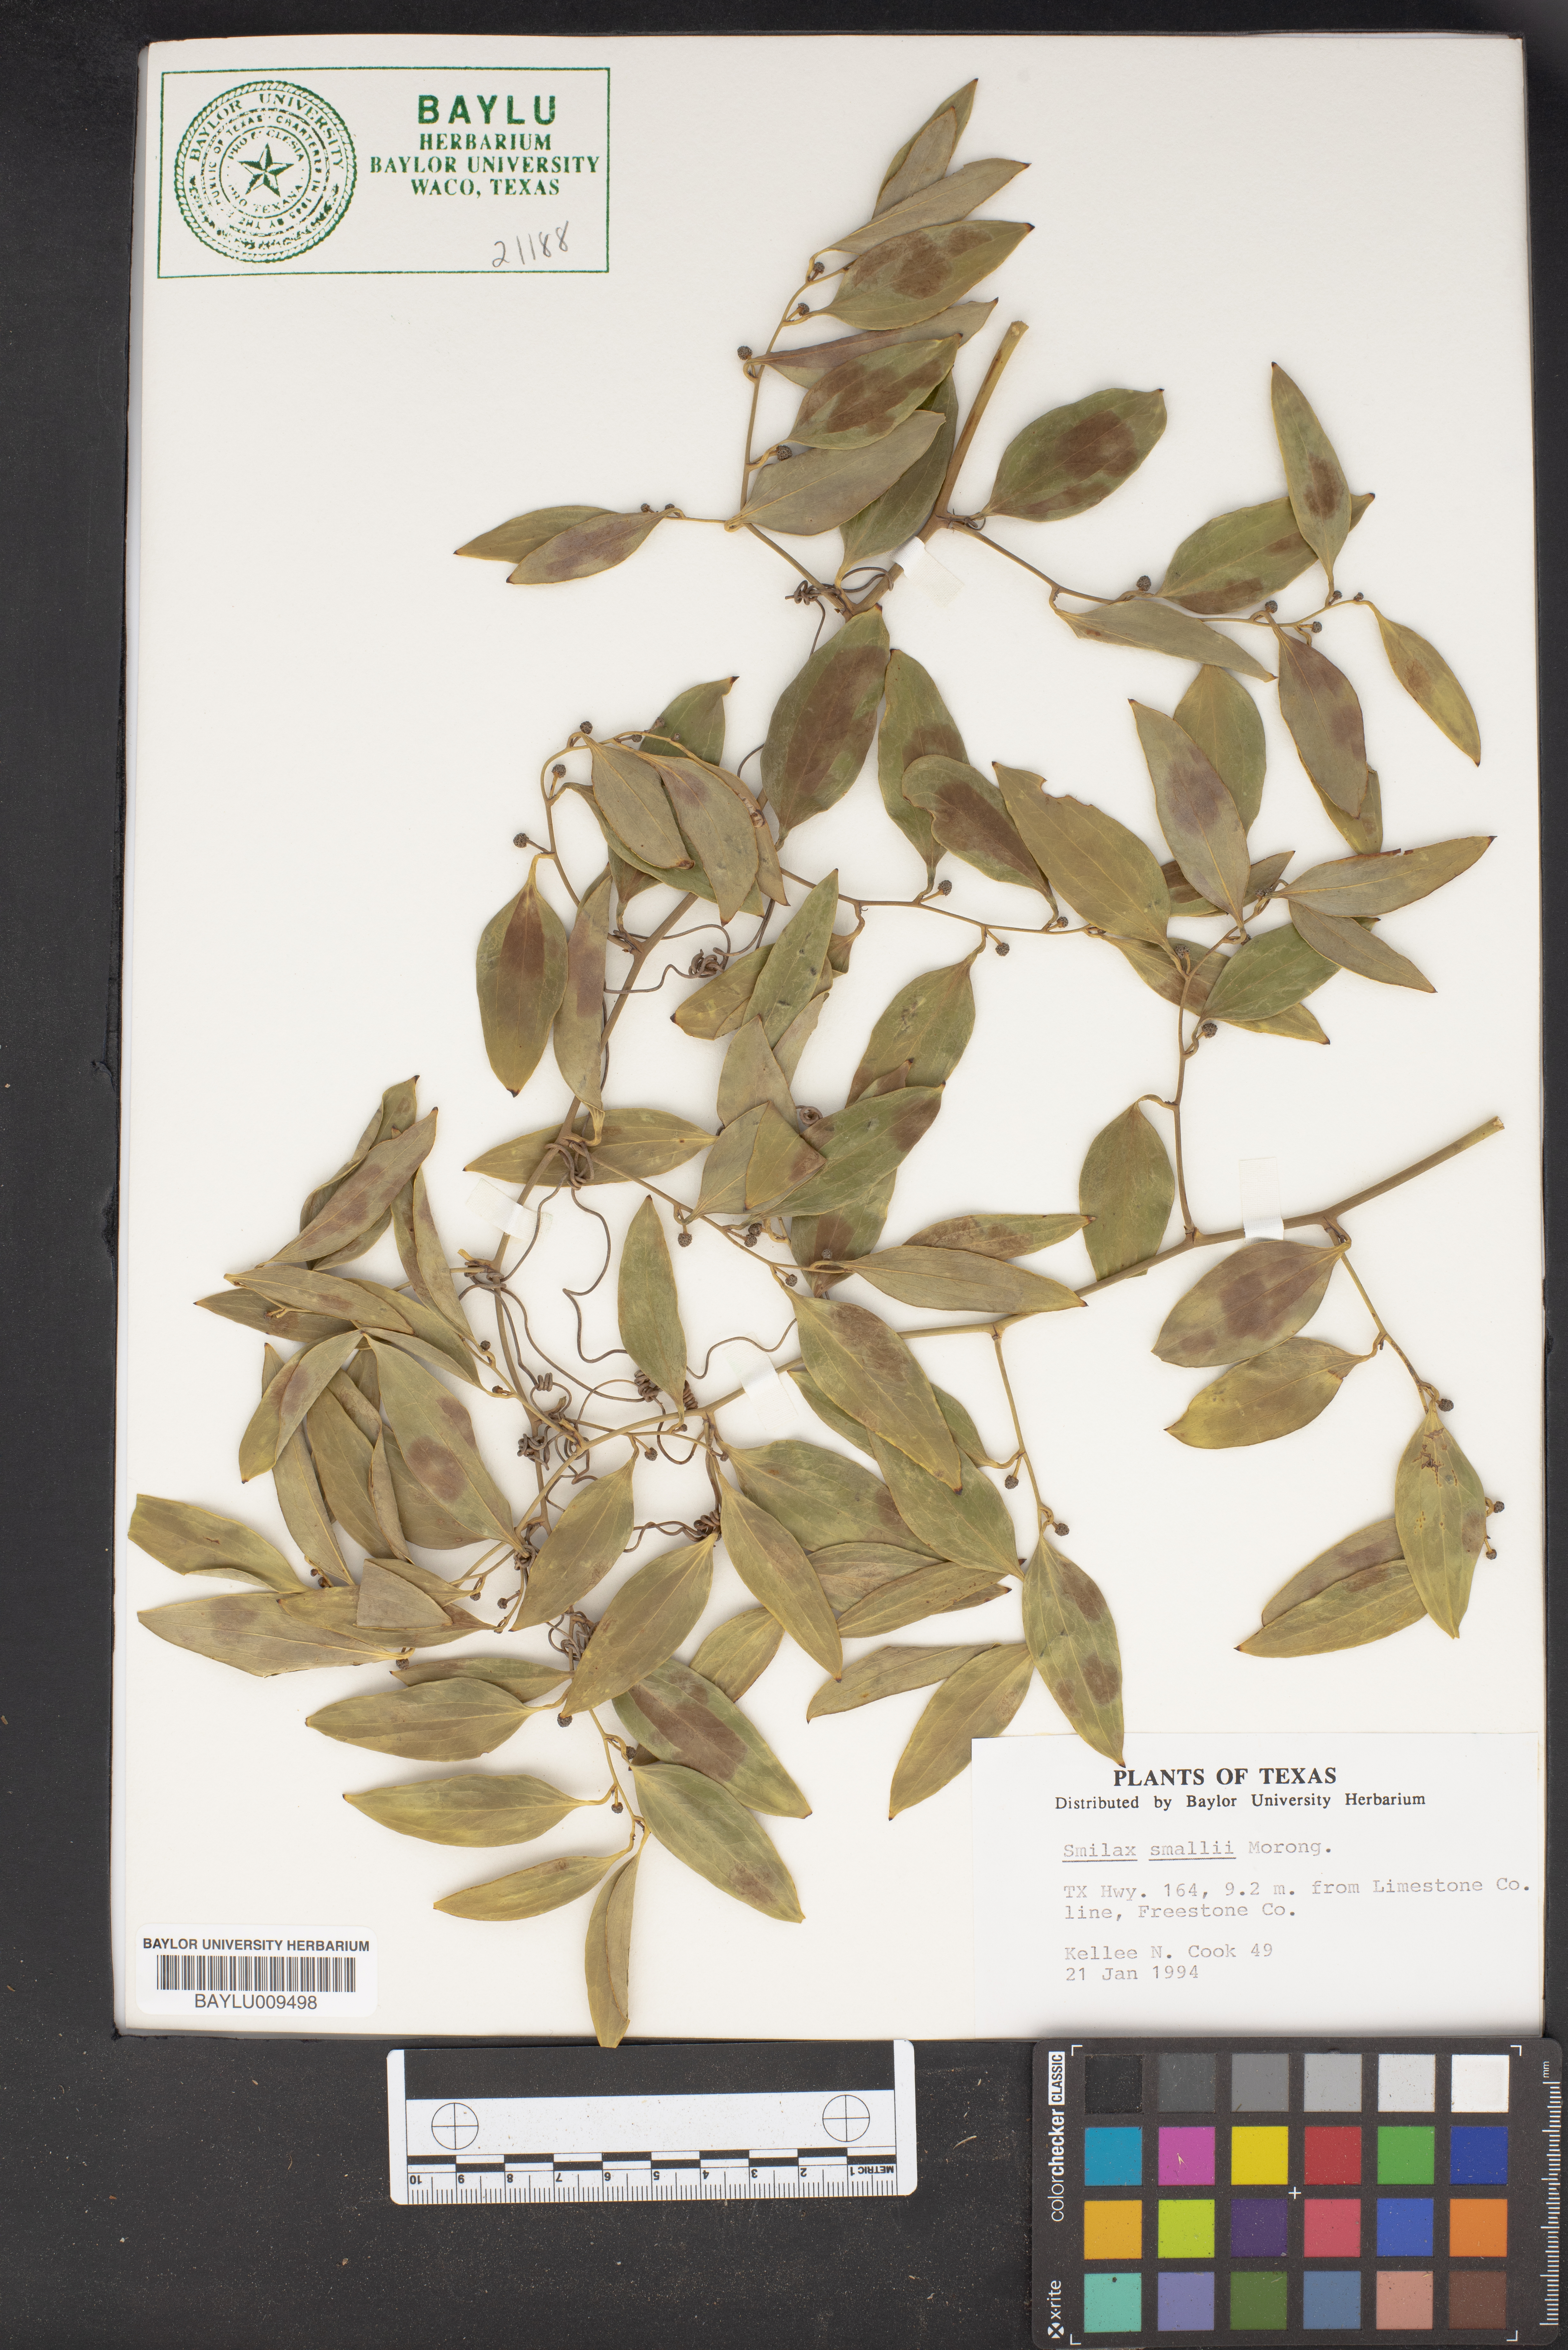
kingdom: Plantae
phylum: Tracheophyta
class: Liliopsida
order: Liliales
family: Smilacaceae
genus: Smilax
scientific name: Smilax maritima
